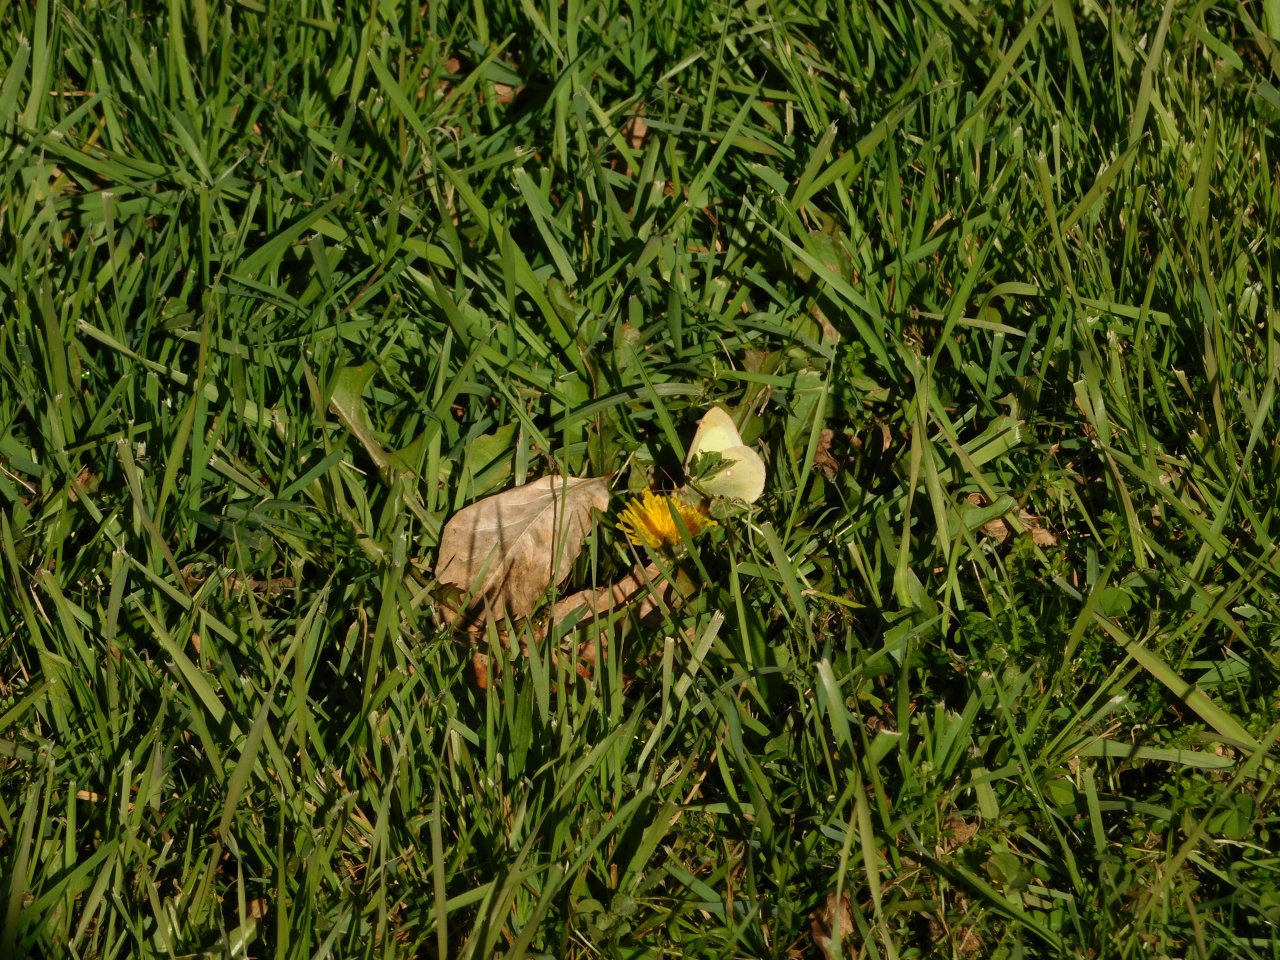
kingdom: Animalia
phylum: Arthropoda
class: Insecta
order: Lepidoptera
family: Pieridae
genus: Colias
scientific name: Colias philodice
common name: Clouded Sulphur
